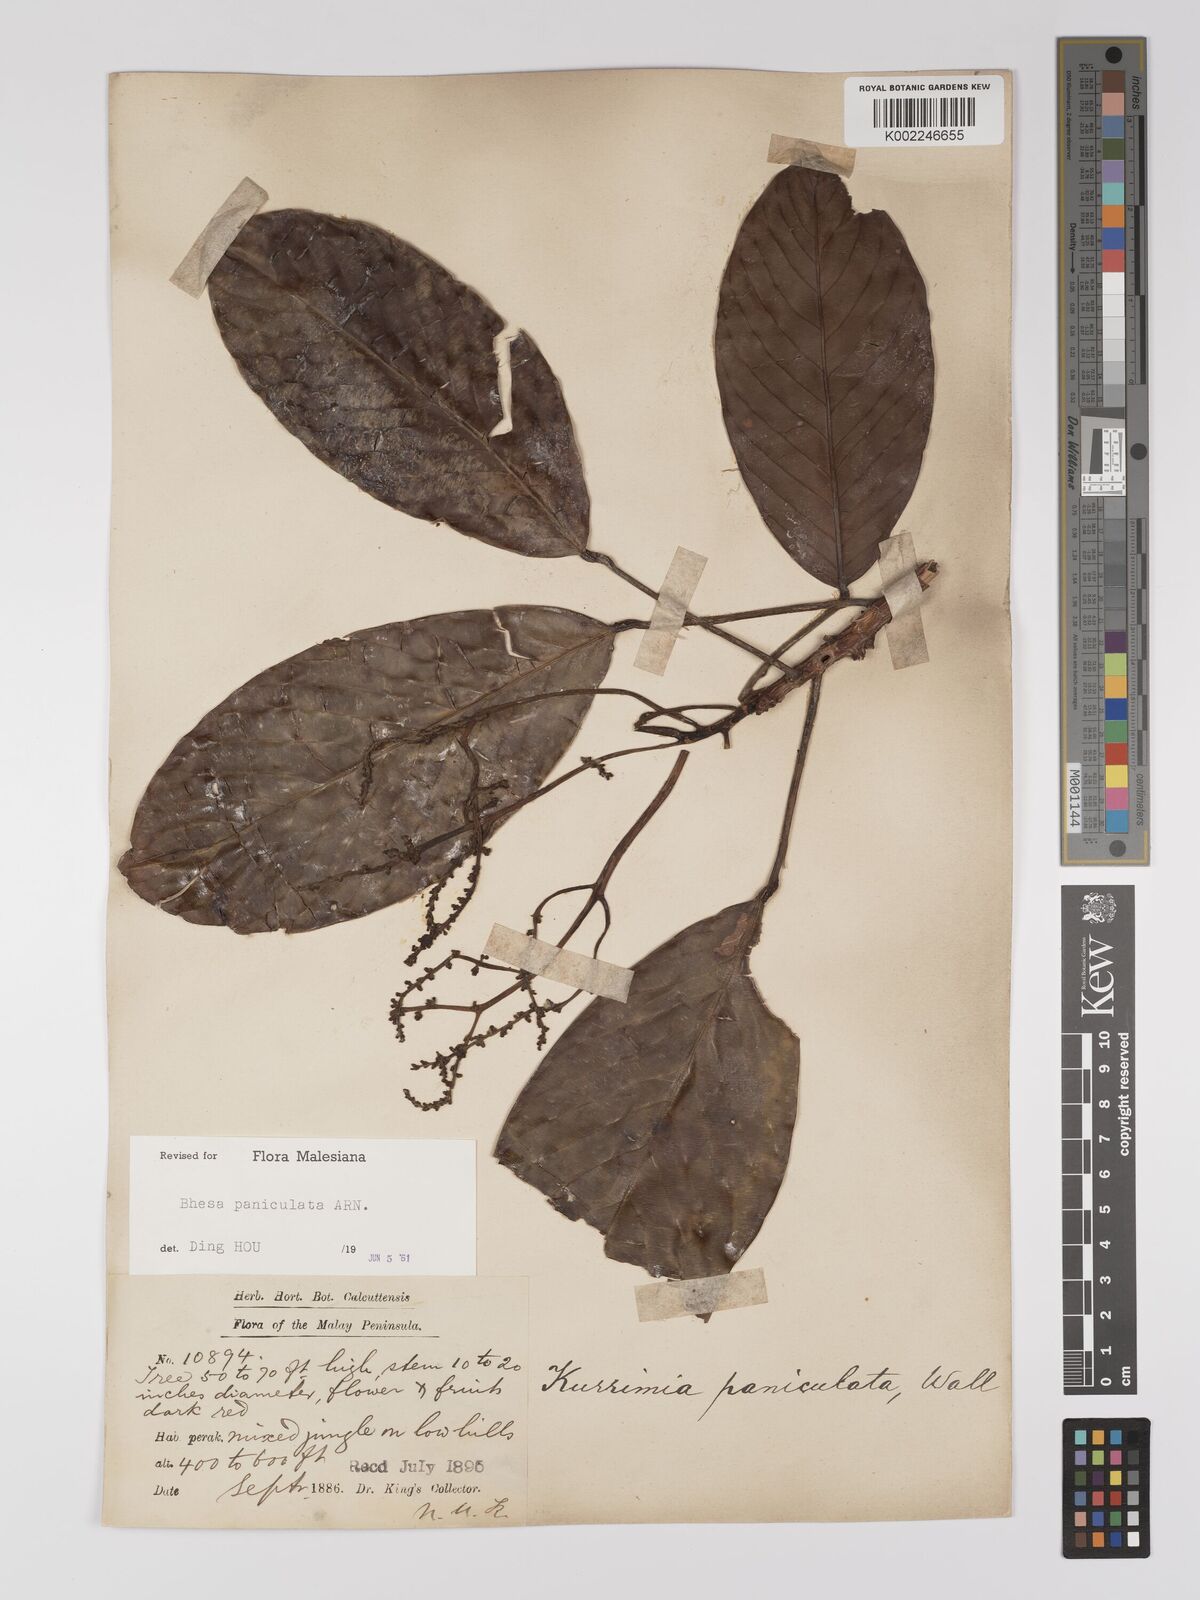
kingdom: Plantae
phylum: Tracheophyta
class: Magnoliopsida
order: Malpighiales
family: Centroplacaceae
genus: Bhesa
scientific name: Bhesa paniculata
